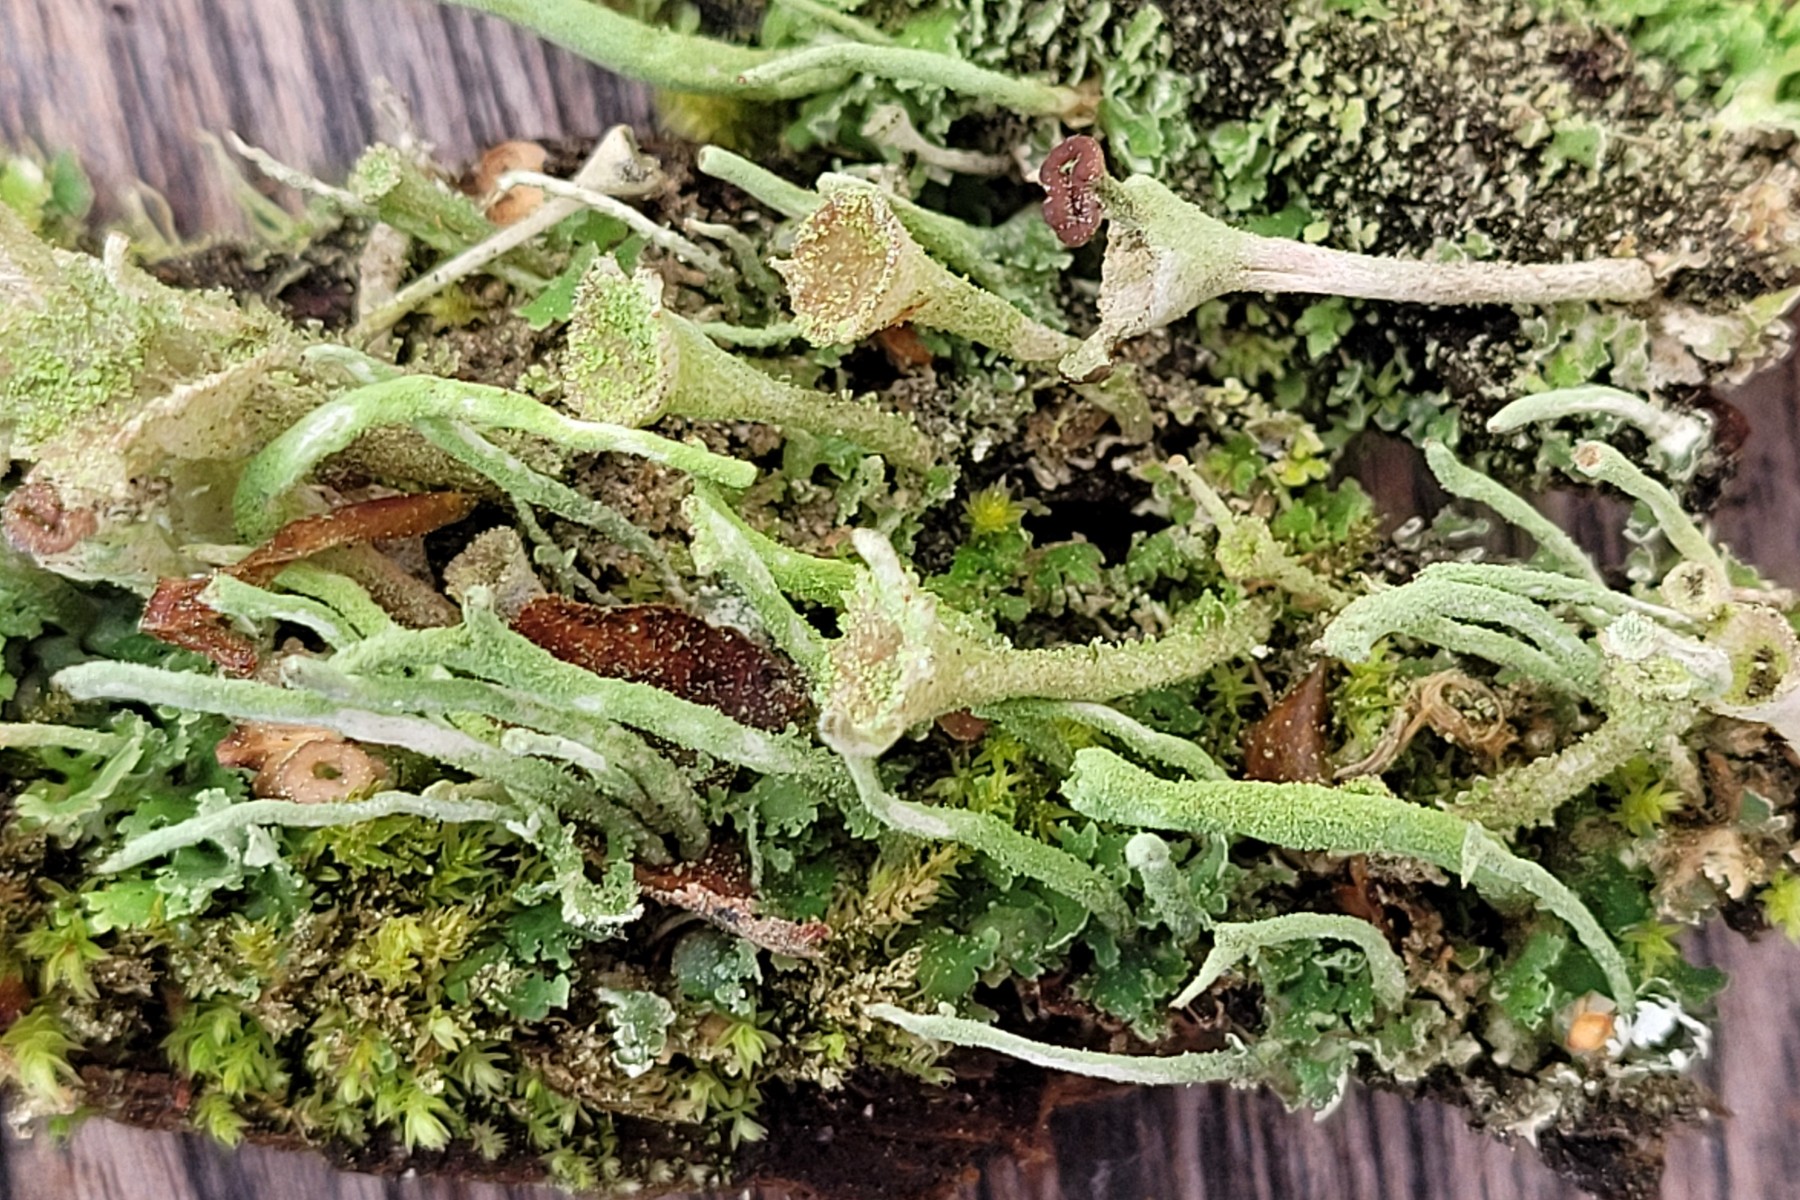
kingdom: Fungi
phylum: Ascomycota
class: Lecanoromycetes
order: Lecanorales
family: Cladoniaceae
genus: Cladonia
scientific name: Cladonia chlorophaea
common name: Mealy pixie cup
